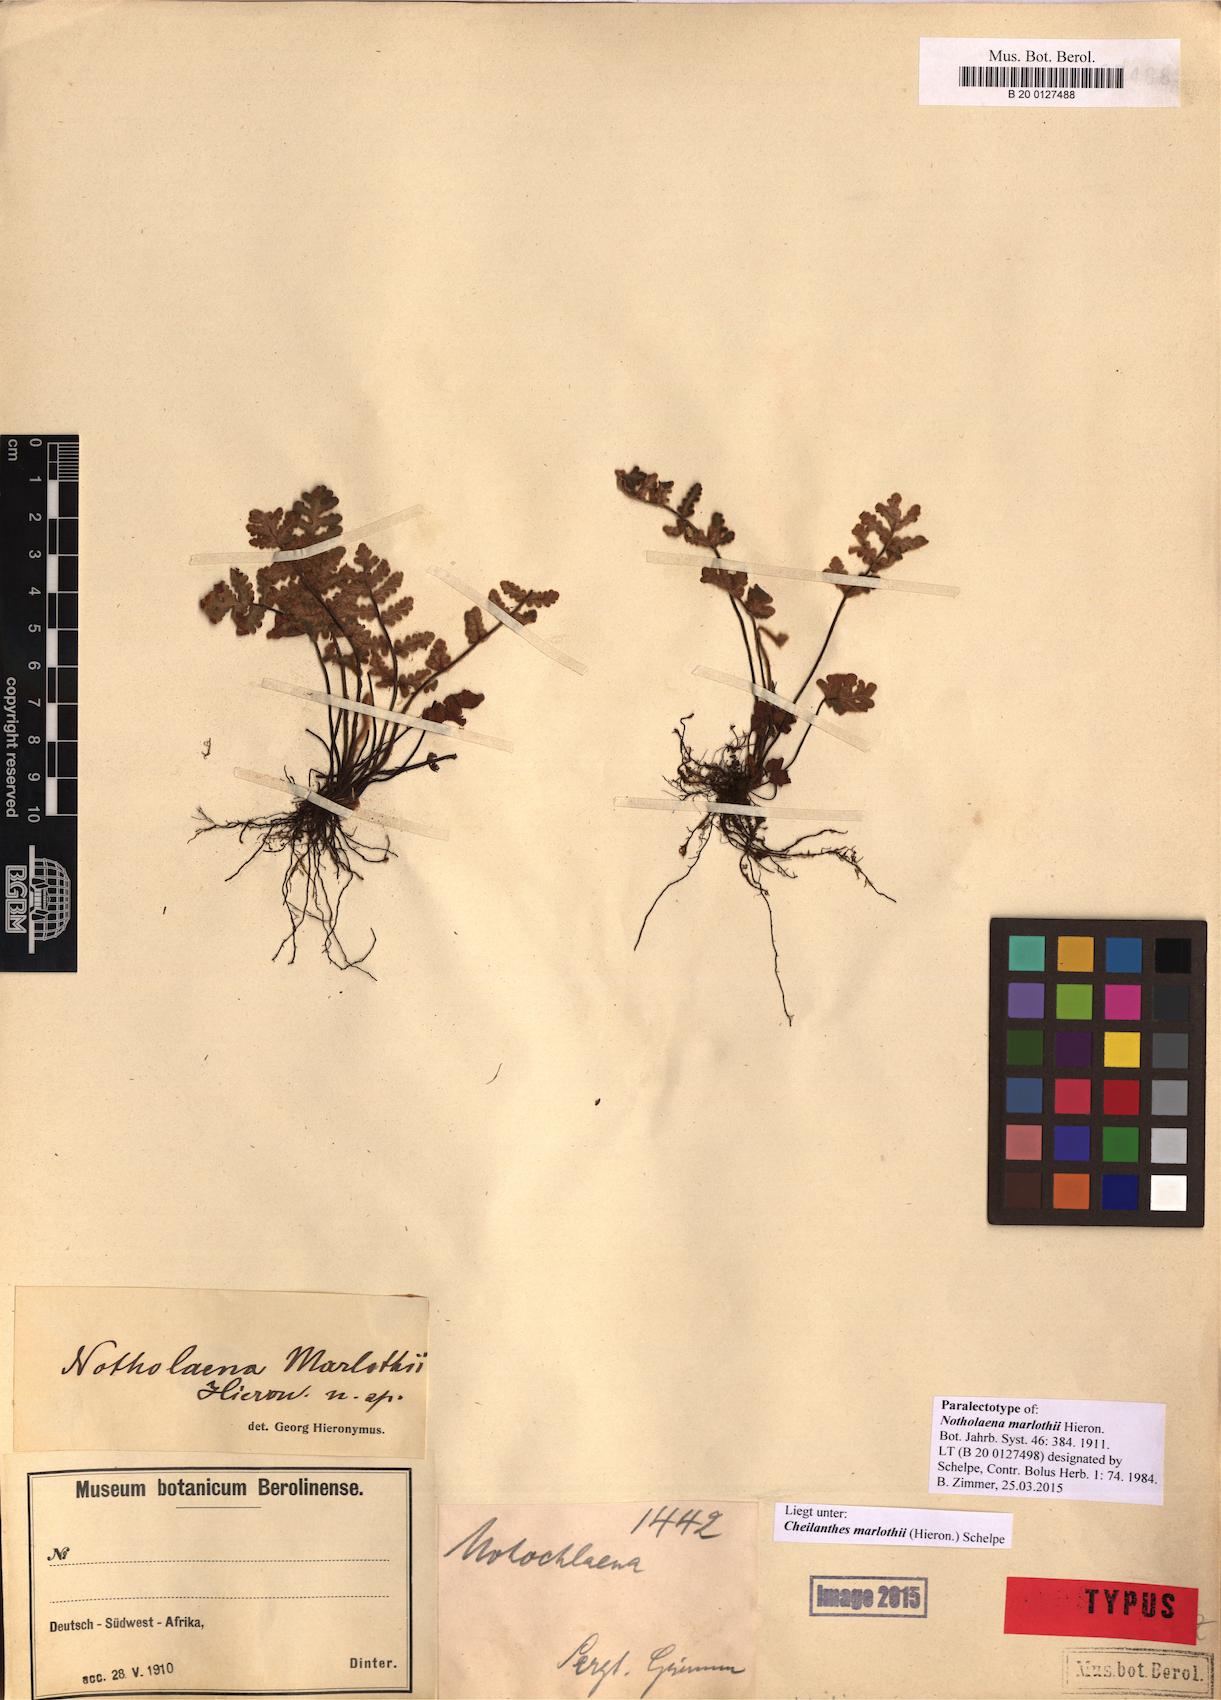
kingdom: Plantae
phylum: Tracheophyta
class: Polypodiopsida
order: Polypodiales
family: Pteridaceae
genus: Cheilanthes
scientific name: Cheilanthes marlothii
